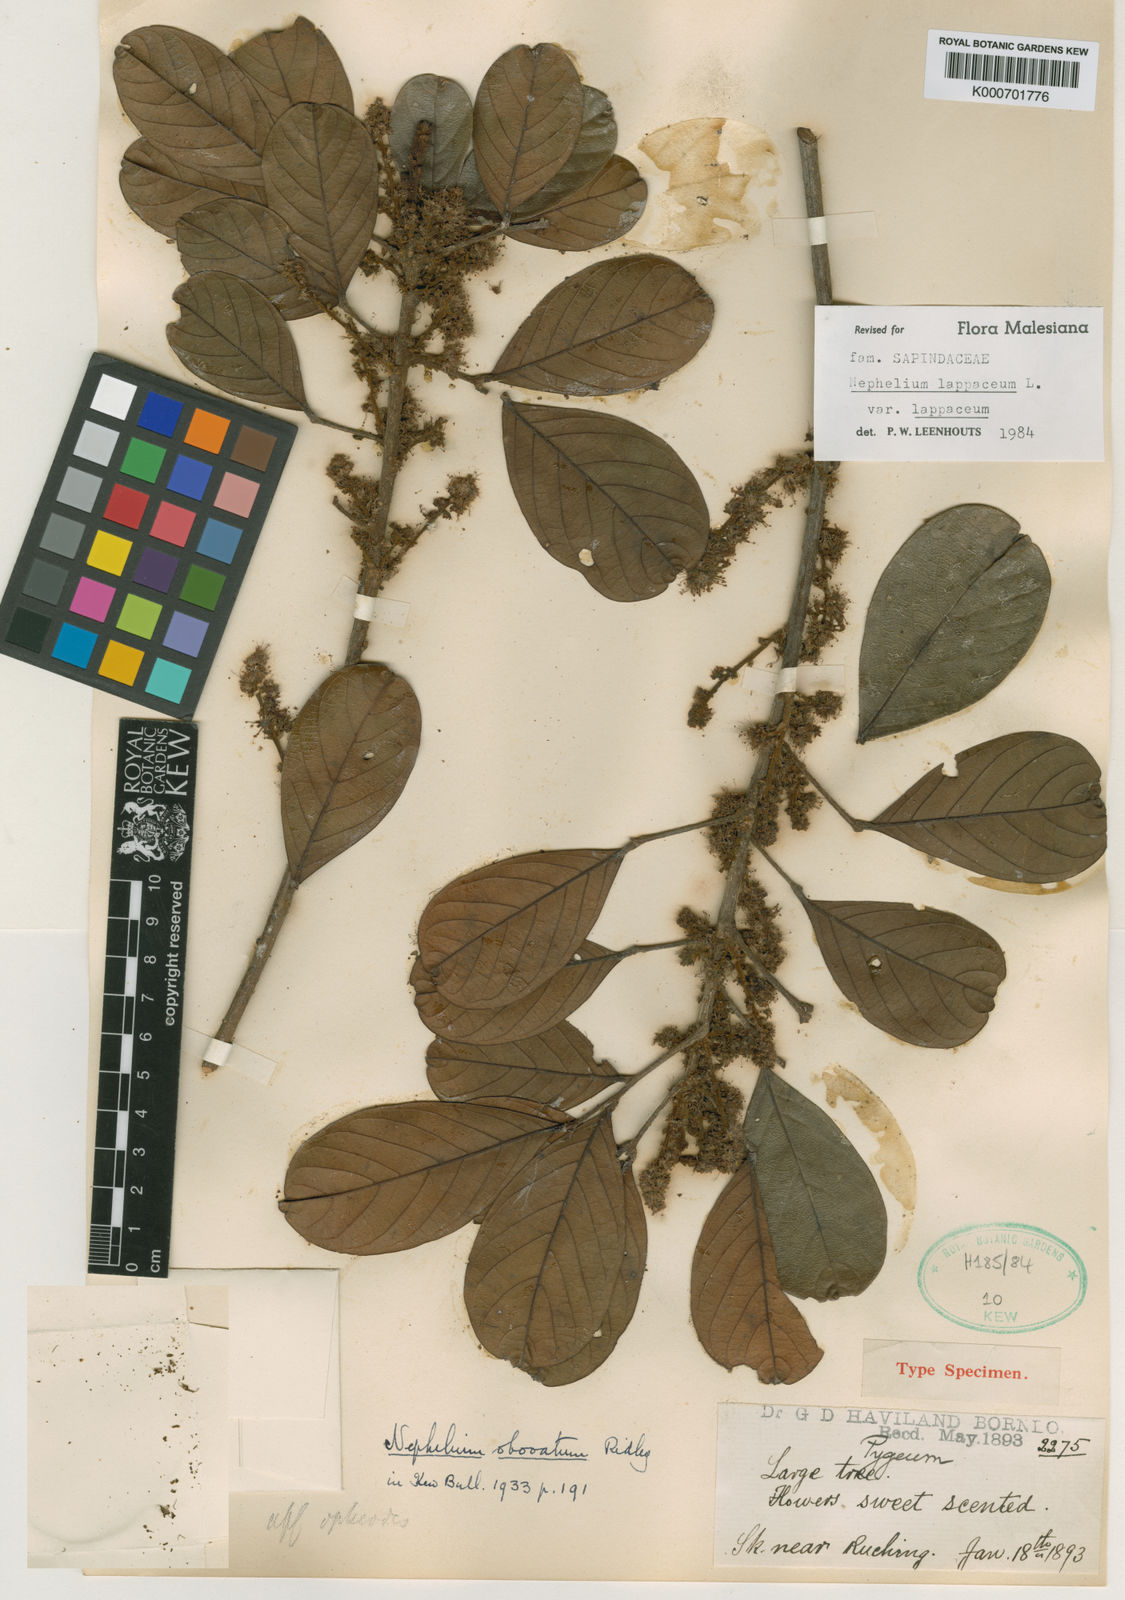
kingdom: Plantae
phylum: Tracheophyta
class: Magnoliopsida
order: Sapindales
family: Sapindaceae
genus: Nephelium
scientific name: Nephelium lappaceum
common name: Rambutan
